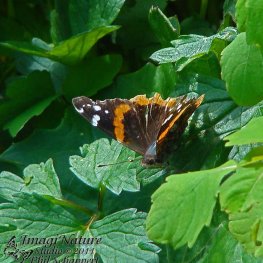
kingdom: Animalia
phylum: Arthropoda
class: Insecta
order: Lepidoptera
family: Nymphalidae
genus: Vanessa
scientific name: Vanessa atalanta
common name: Red Admiral
